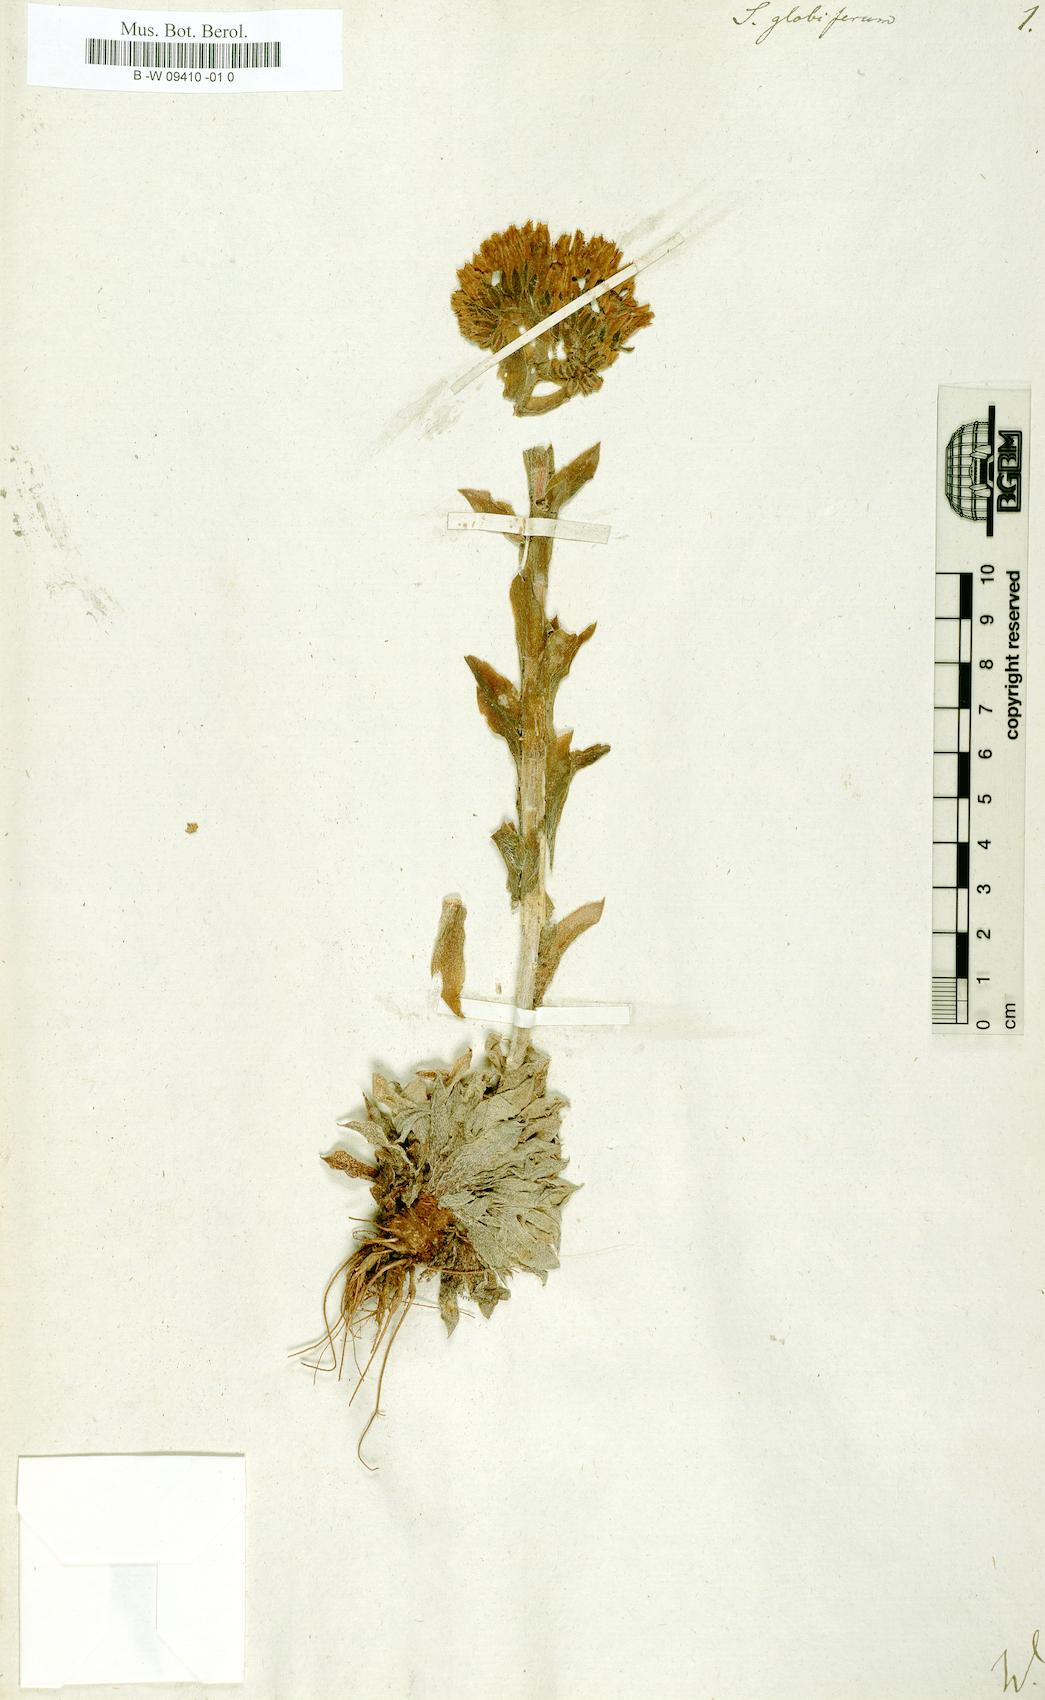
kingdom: Plantae
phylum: Tracheophyta
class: Magnoliopsida
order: Saxifragales
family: Crassulaceae
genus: Sempervivum
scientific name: Sempervivum globiferum
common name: Rolling hen-and-chicks
